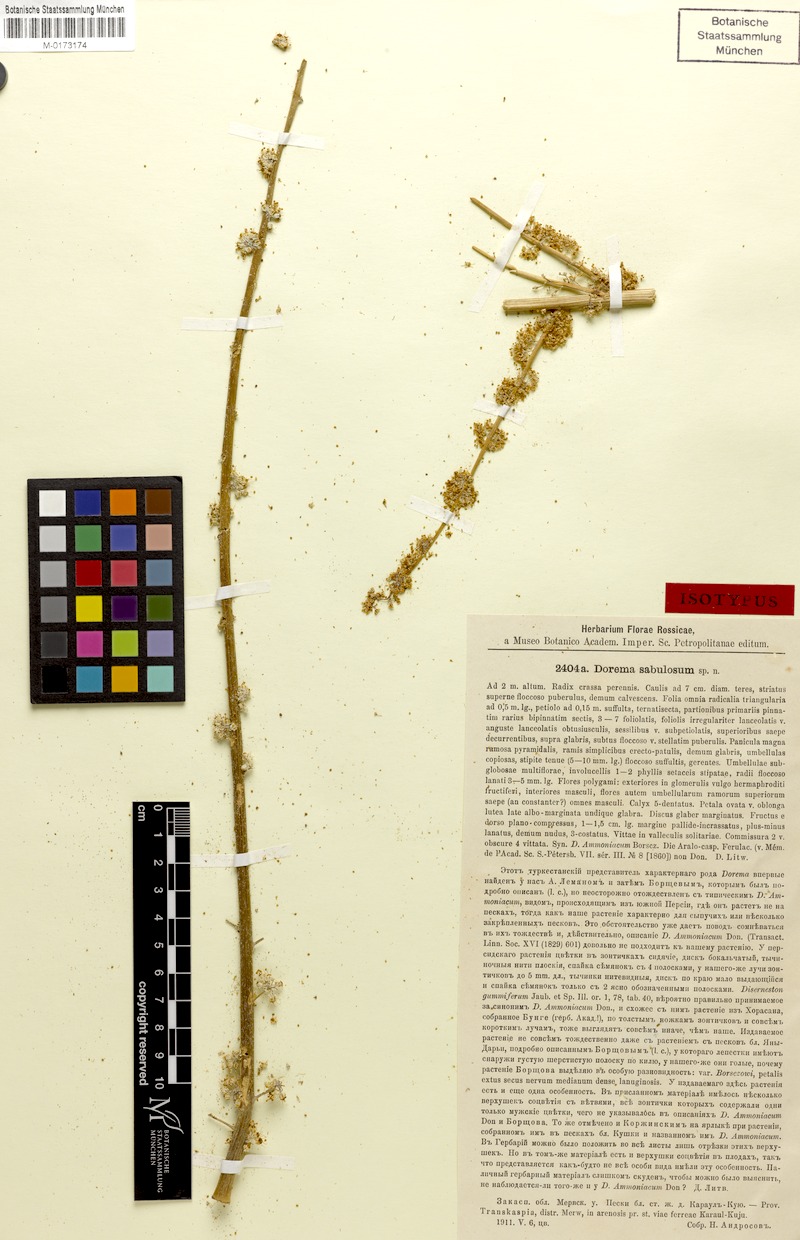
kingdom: Plantae
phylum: Tracheophyta
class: Magnoliopsida
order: Apiales
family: Apiaceae
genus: Ferula
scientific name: Ferula sabulosum
